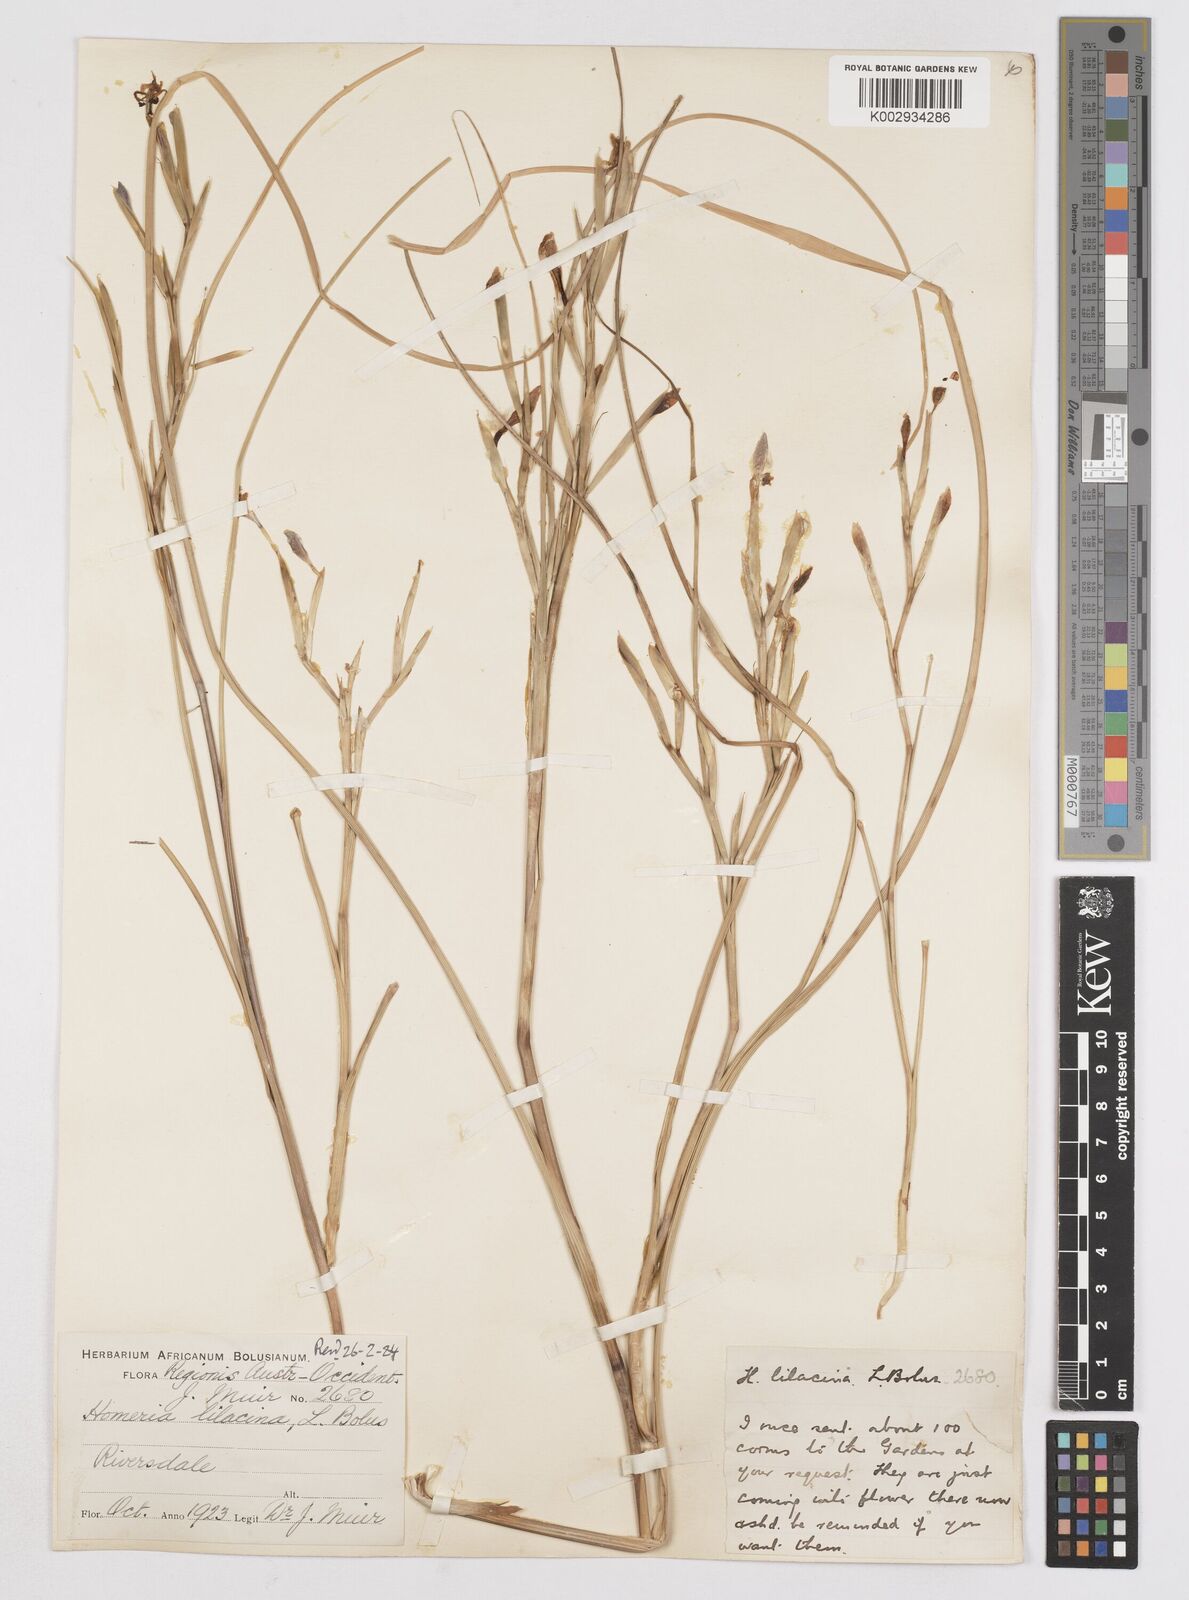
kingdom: Plantae
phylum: Tracheophyta
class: Liliopsida
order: Asparagales
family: Iridaceae
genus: Moraea
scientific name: Moraea
